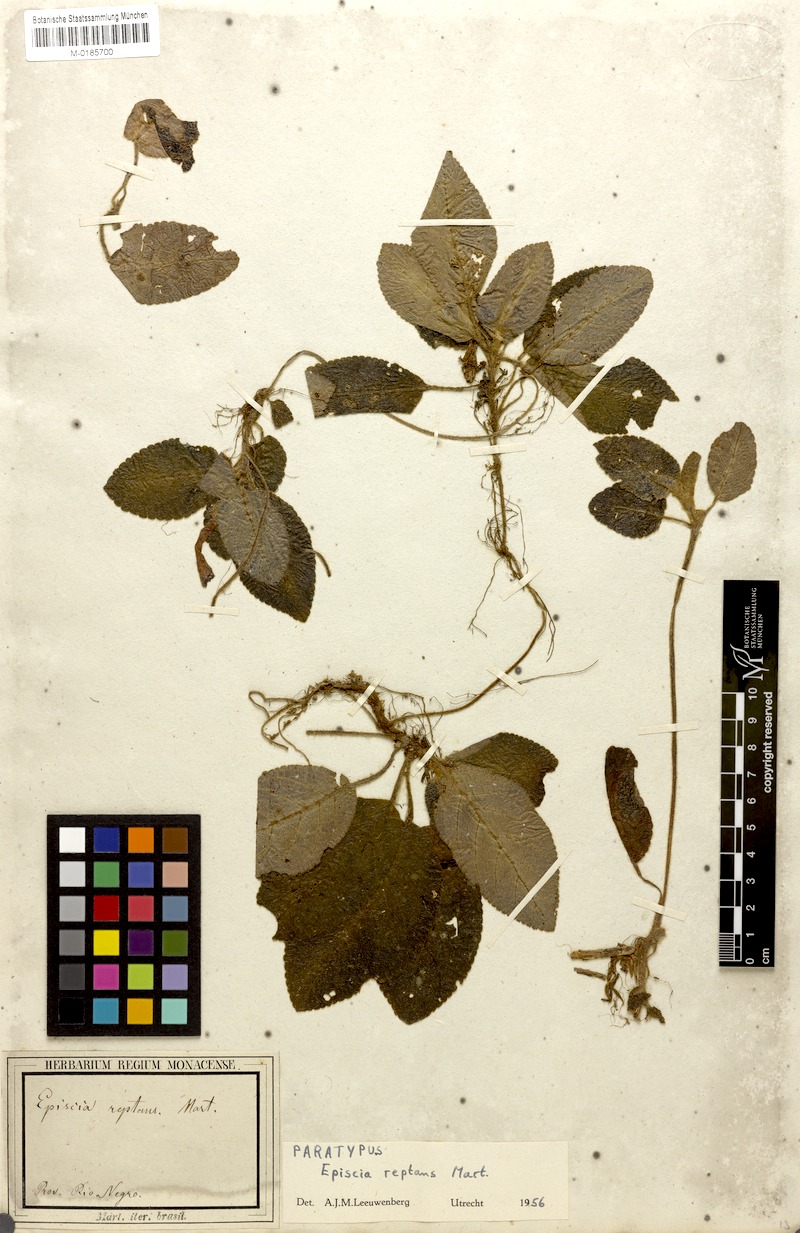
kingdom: Plantae
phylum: Tracheophyta
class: Magnoliopsida
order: Lamiales
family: Gesneriaceae
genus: Episcia
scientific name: Episcia reptans
